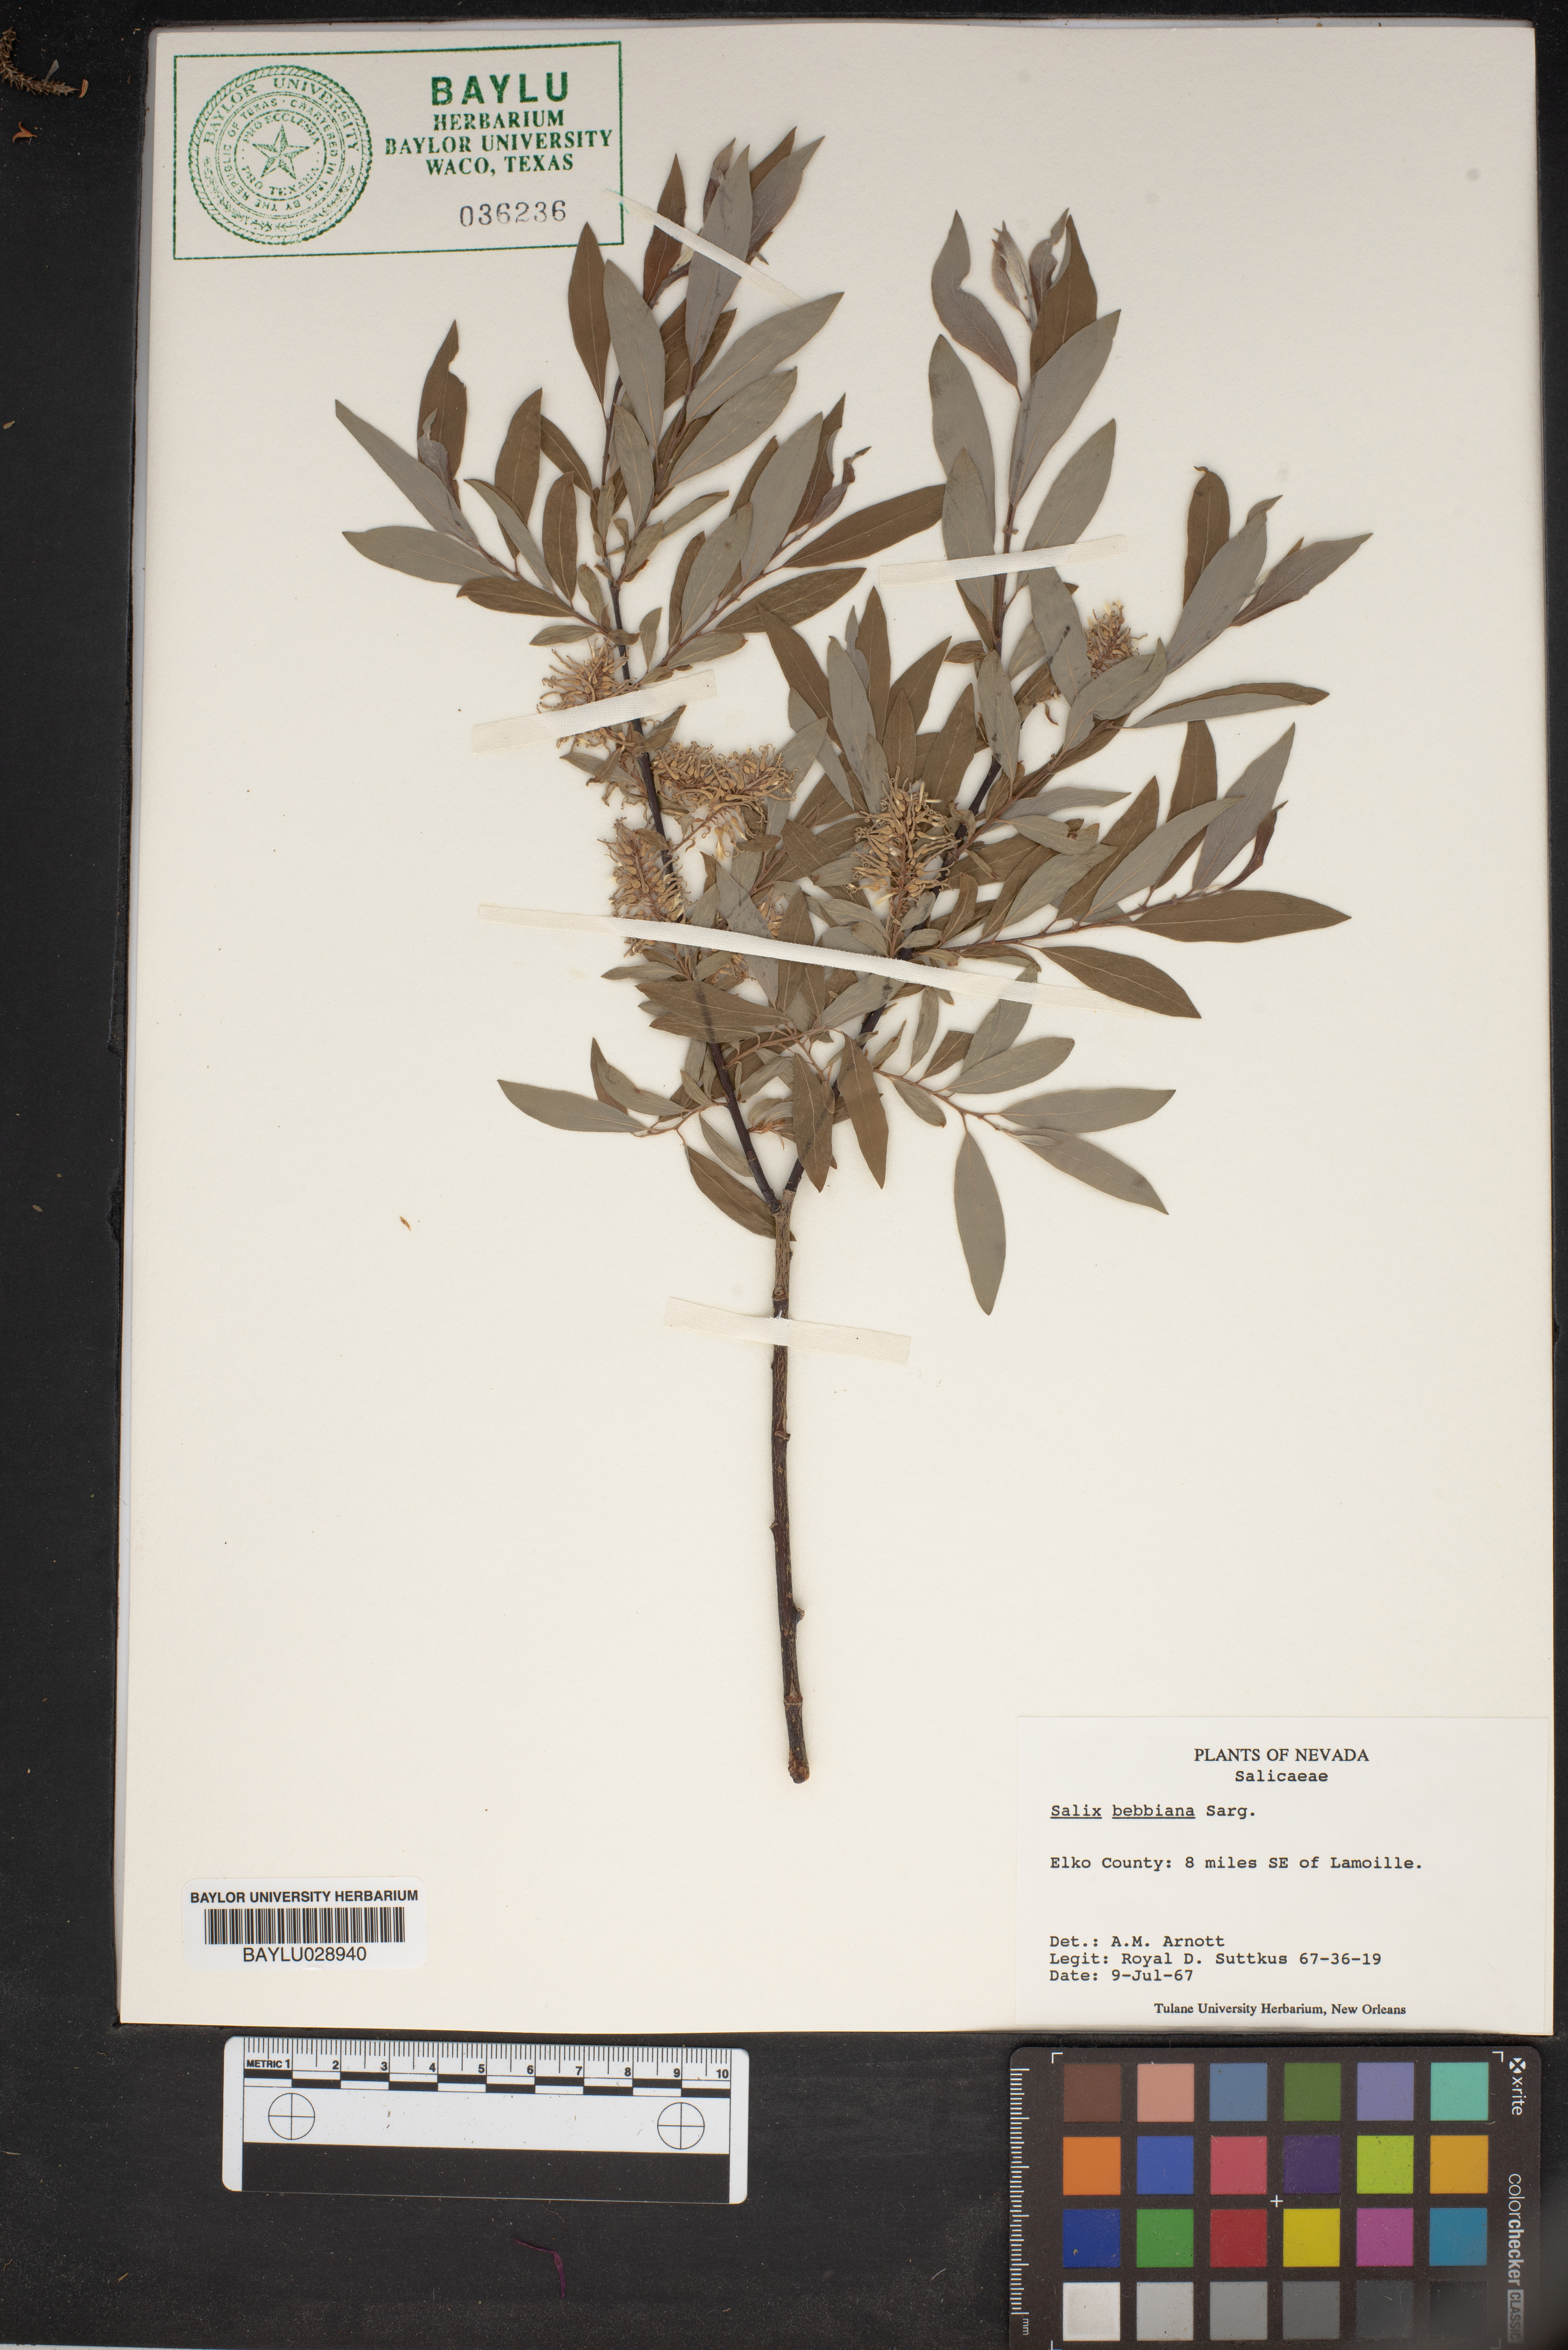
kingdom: Plantae
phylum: Tracheophyta
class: Magnoliopsida
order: Malpighiales
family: Salicaceae
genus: Salix
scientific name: Salix bebbiana
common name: Bebb's willow
